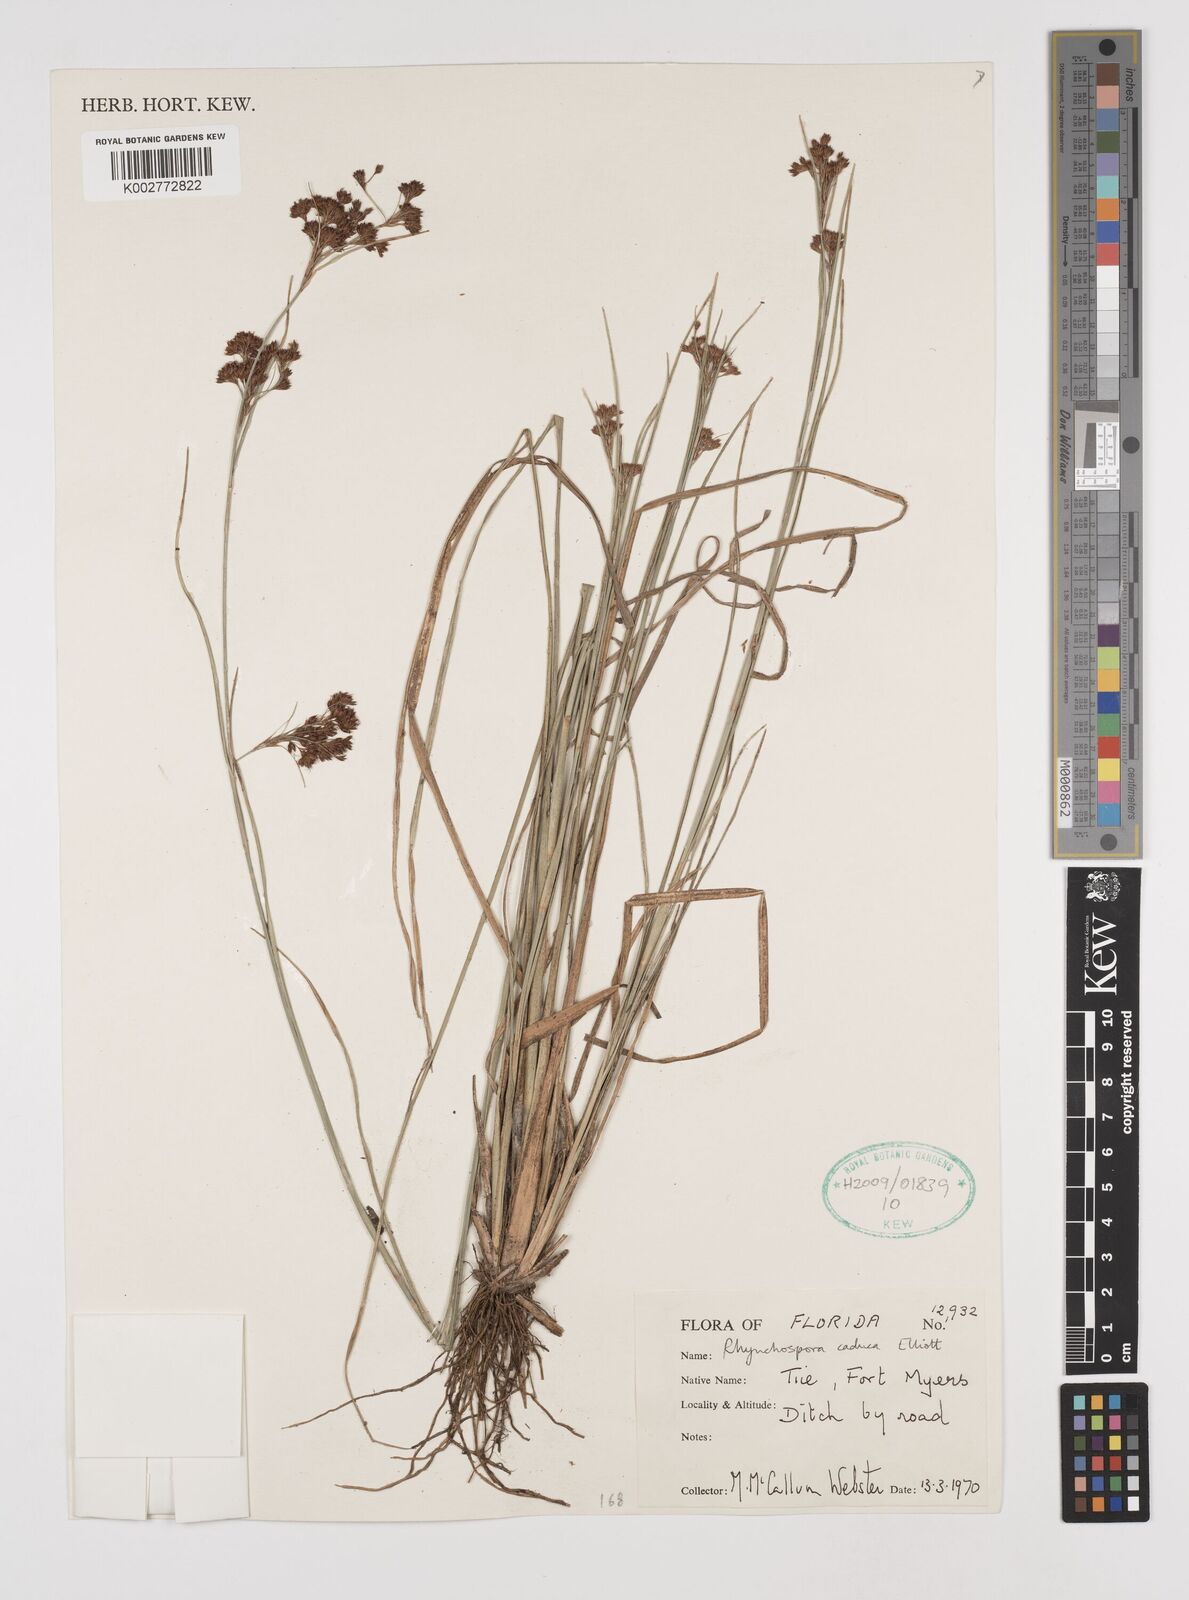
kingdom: Plantae
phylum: Tracheophyta
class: Liliopsida
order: Poales
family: Cyperaceae
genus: Rhynchospora
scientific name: Rhynchospora caduca
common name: Anglestem beaksedge
